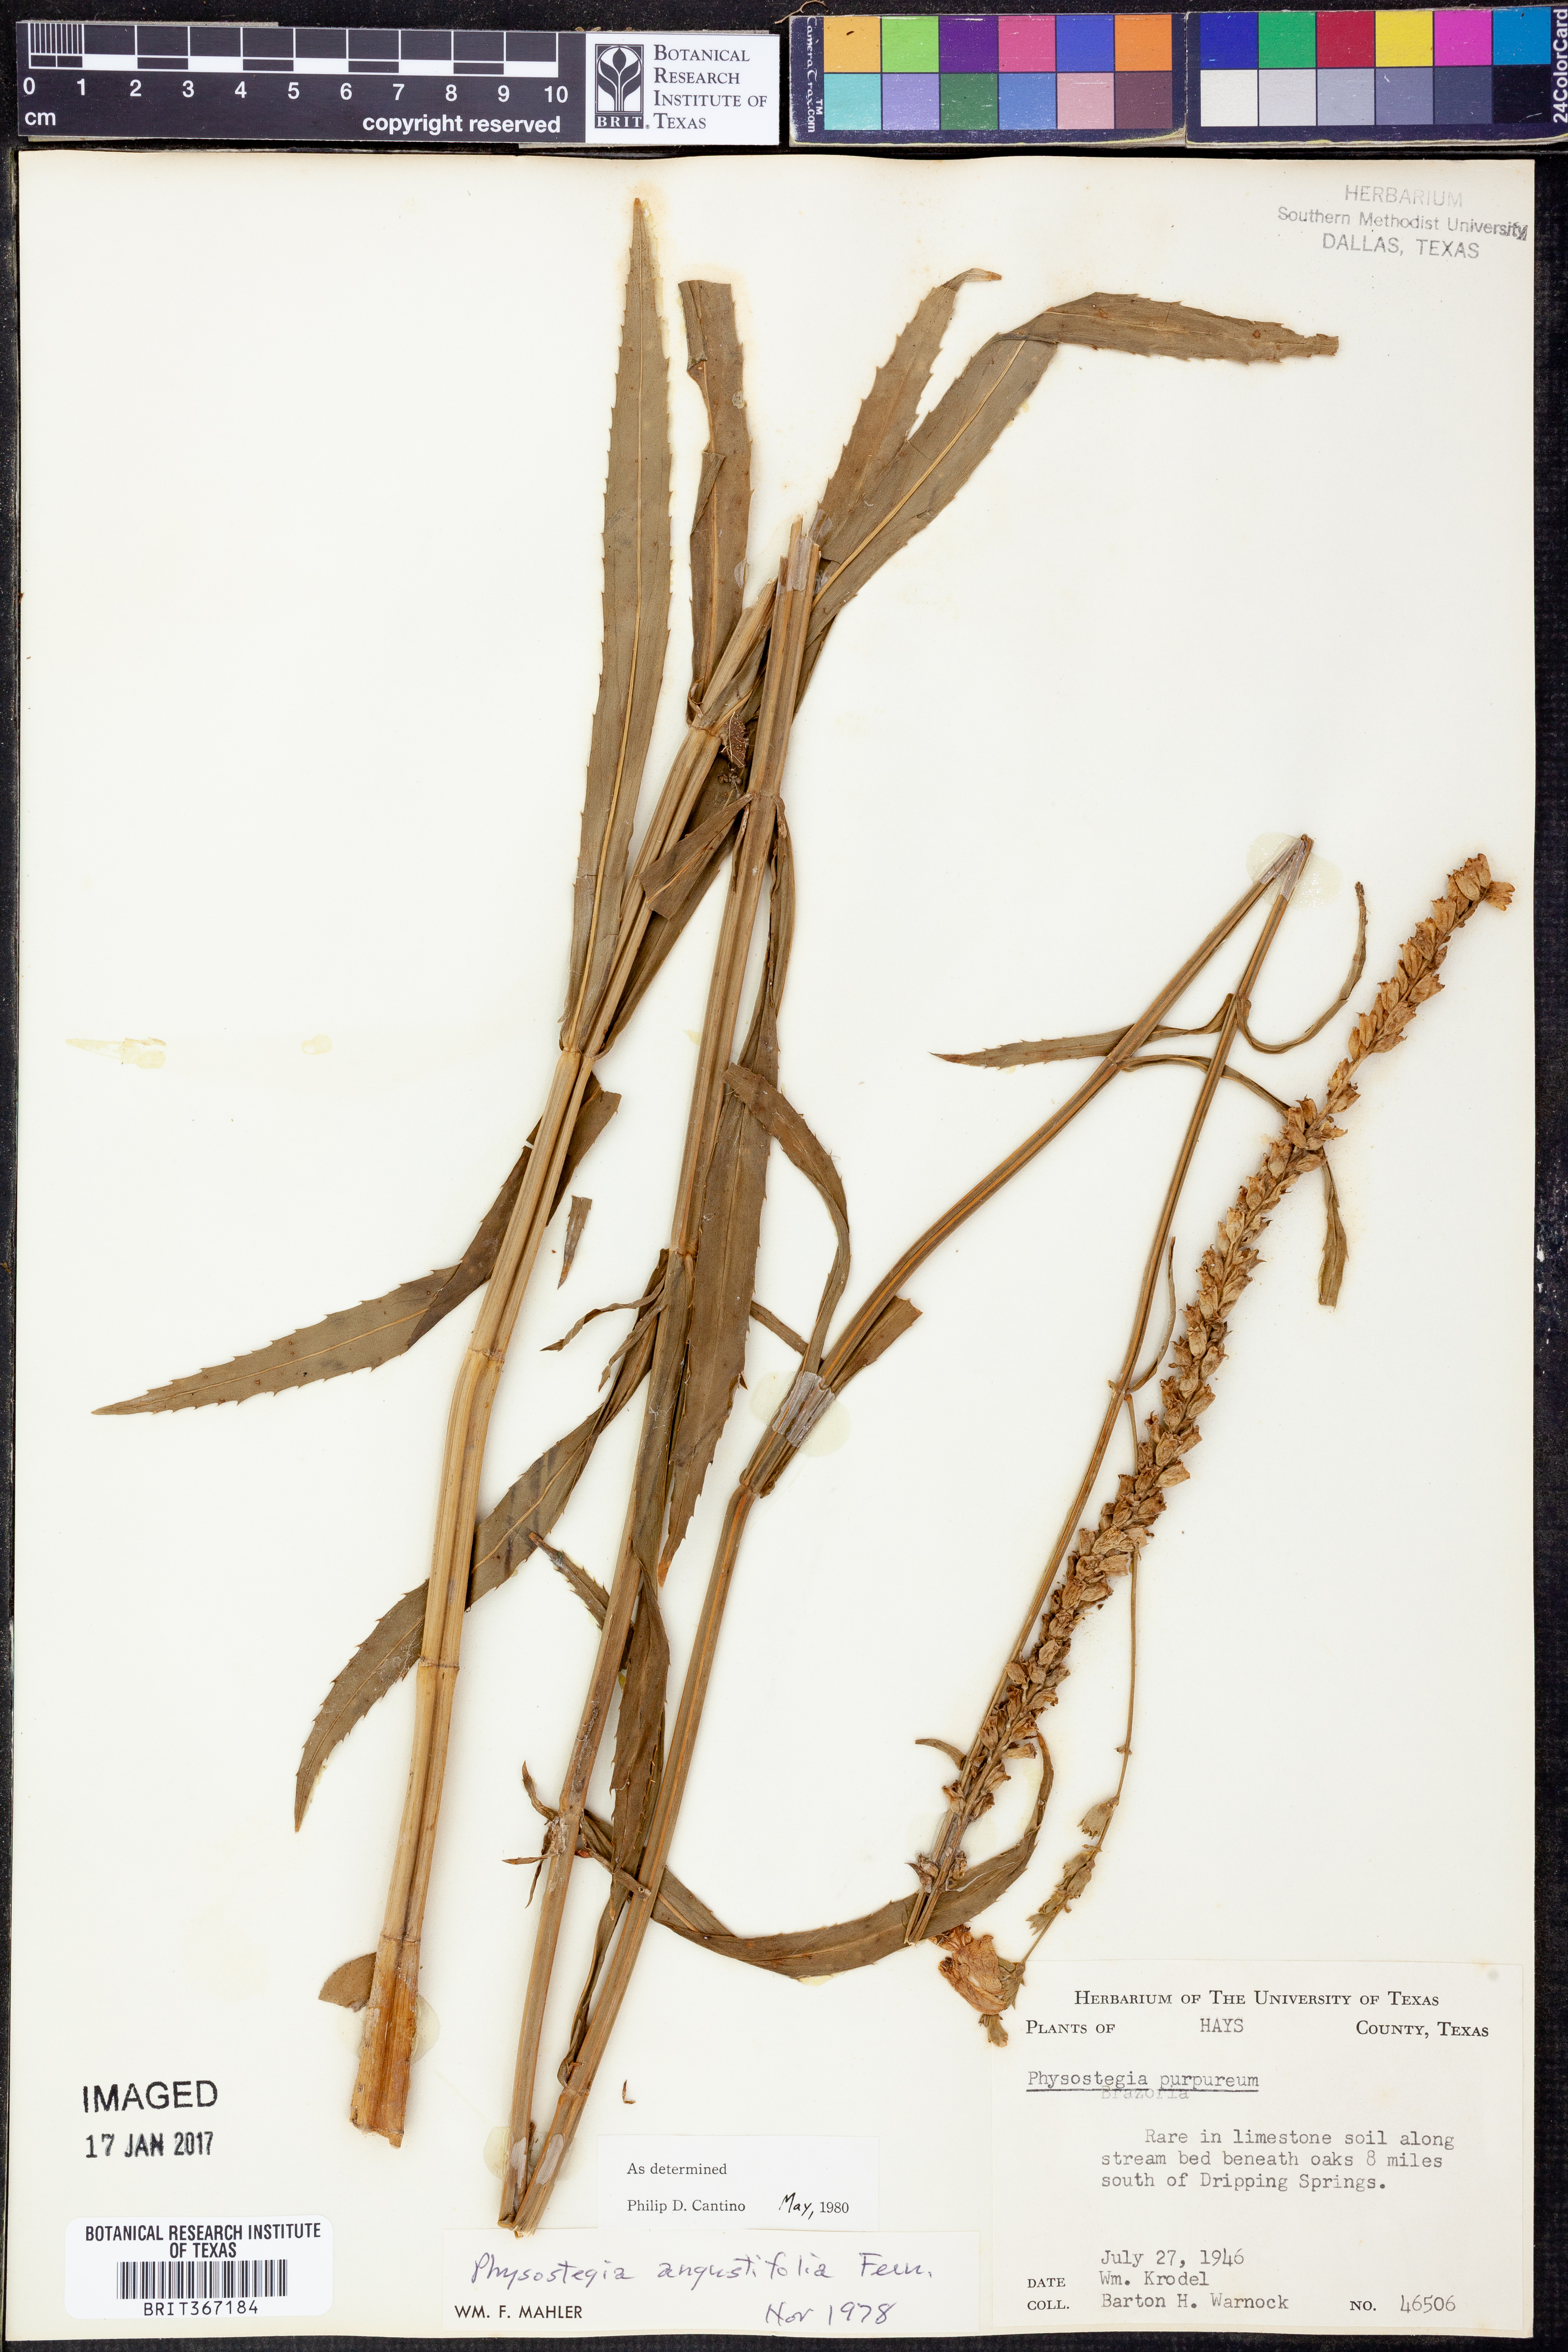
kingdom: Plantae
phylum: Tracheophyta
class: Magnoliopsida
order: Lamiales
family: Lamiaceae
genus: Physostegia
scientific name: Physostegia angustifolia
